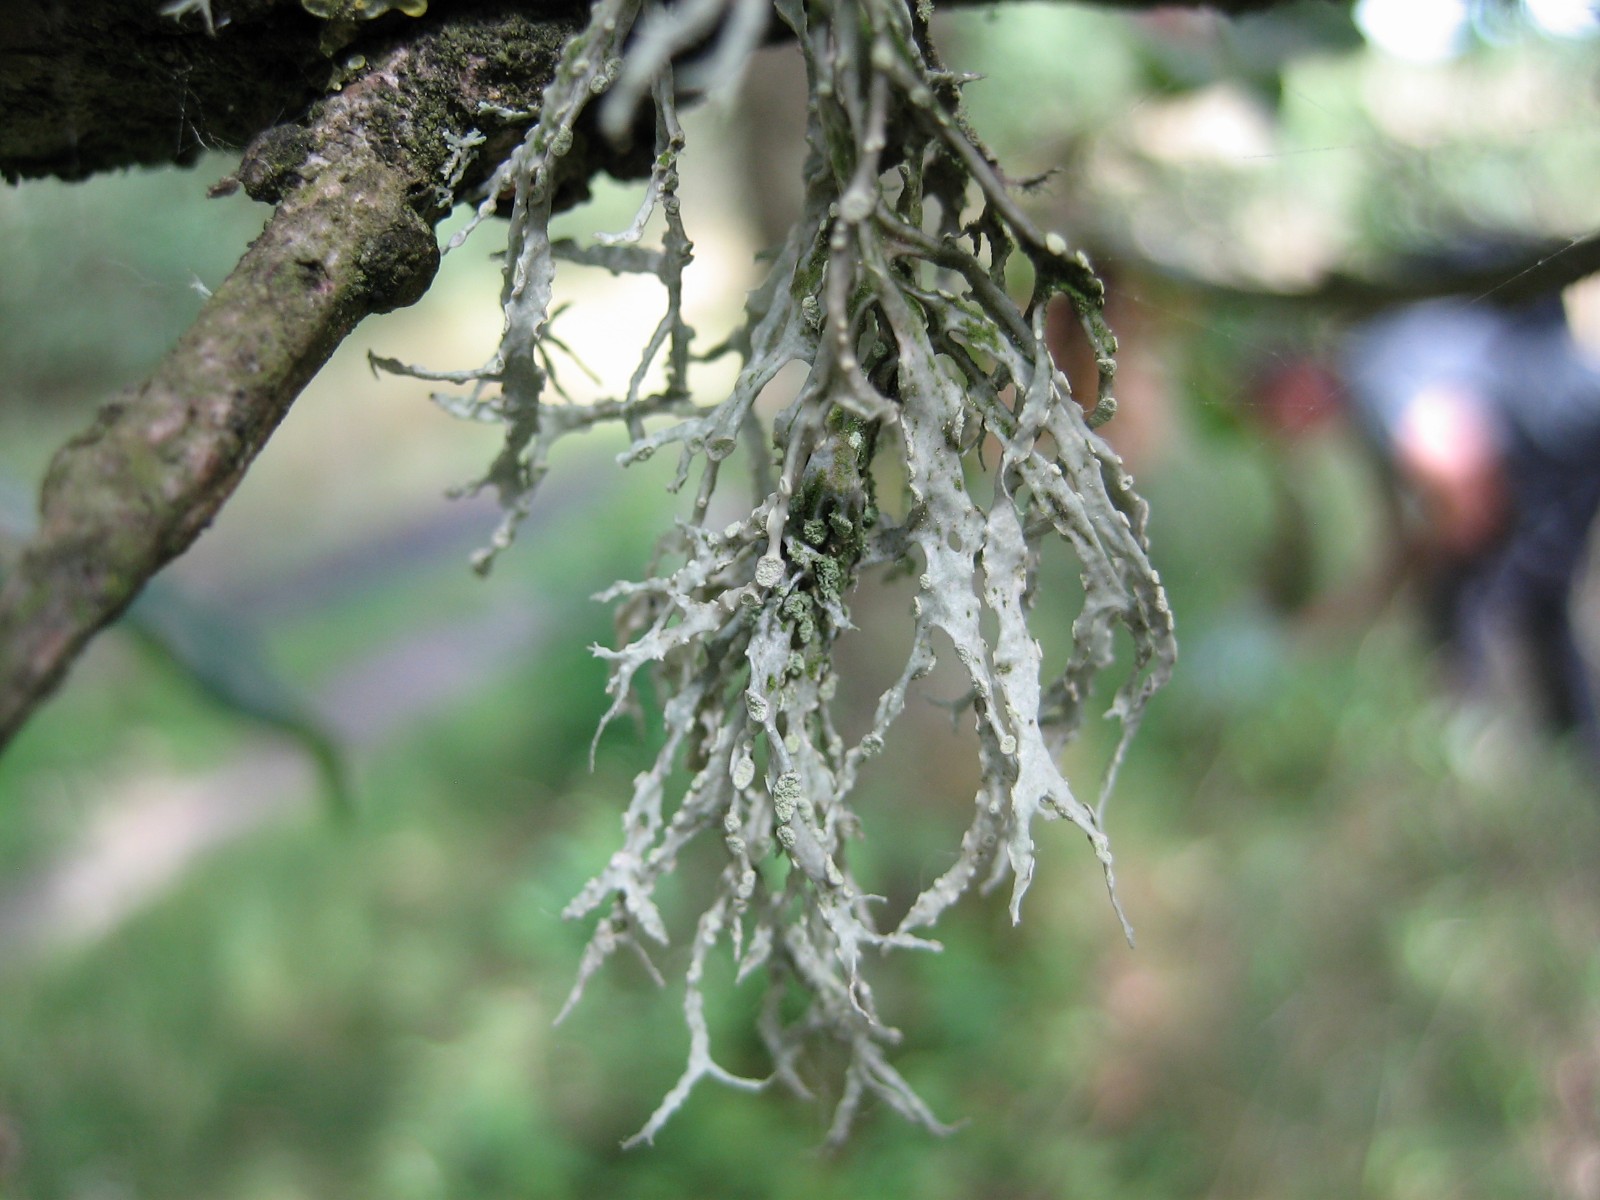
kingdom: Fungi
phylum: Ascomycota
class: Lecanoromycetes
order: Lecanorales
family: Ramalinaceae
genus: Ramalina
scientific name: Ramalina farinacea
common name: melet grenlav
